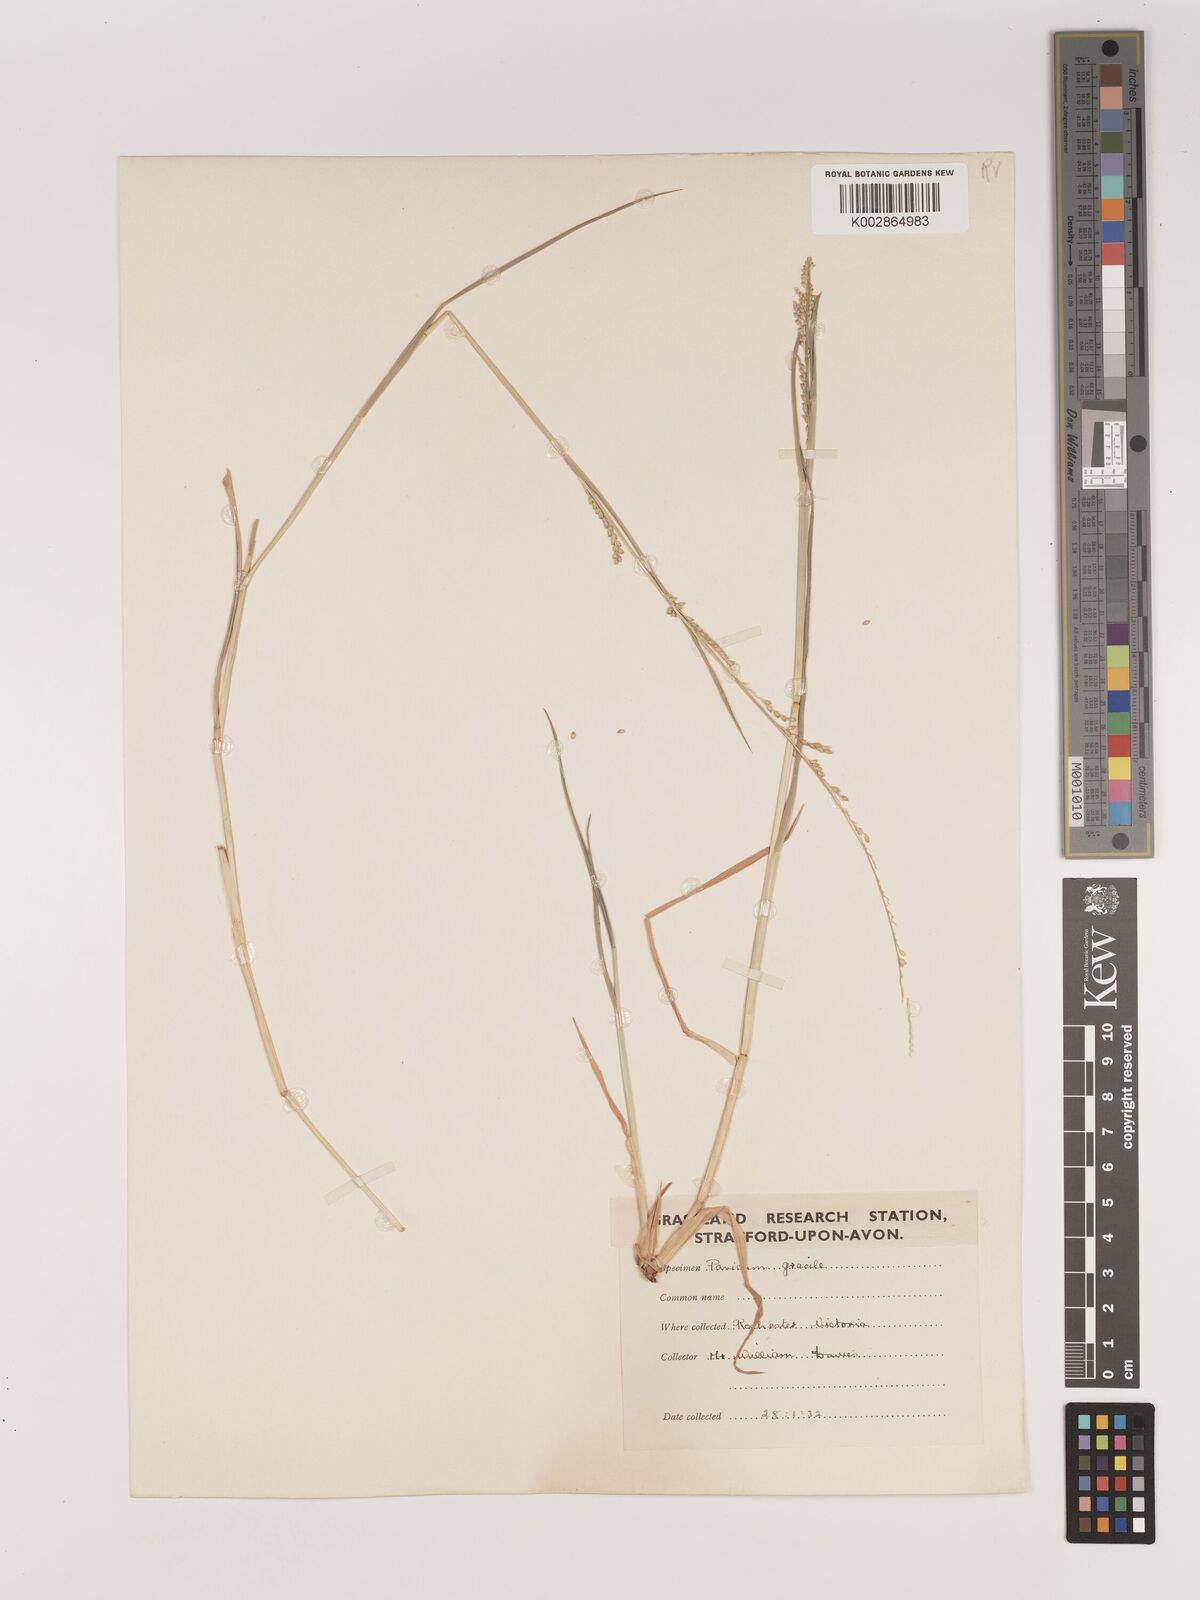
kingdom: Plantae
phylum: Tracheophyta
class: Liliopsida
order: Poales
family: Poaceae
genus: Setaria
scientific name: Setaria
